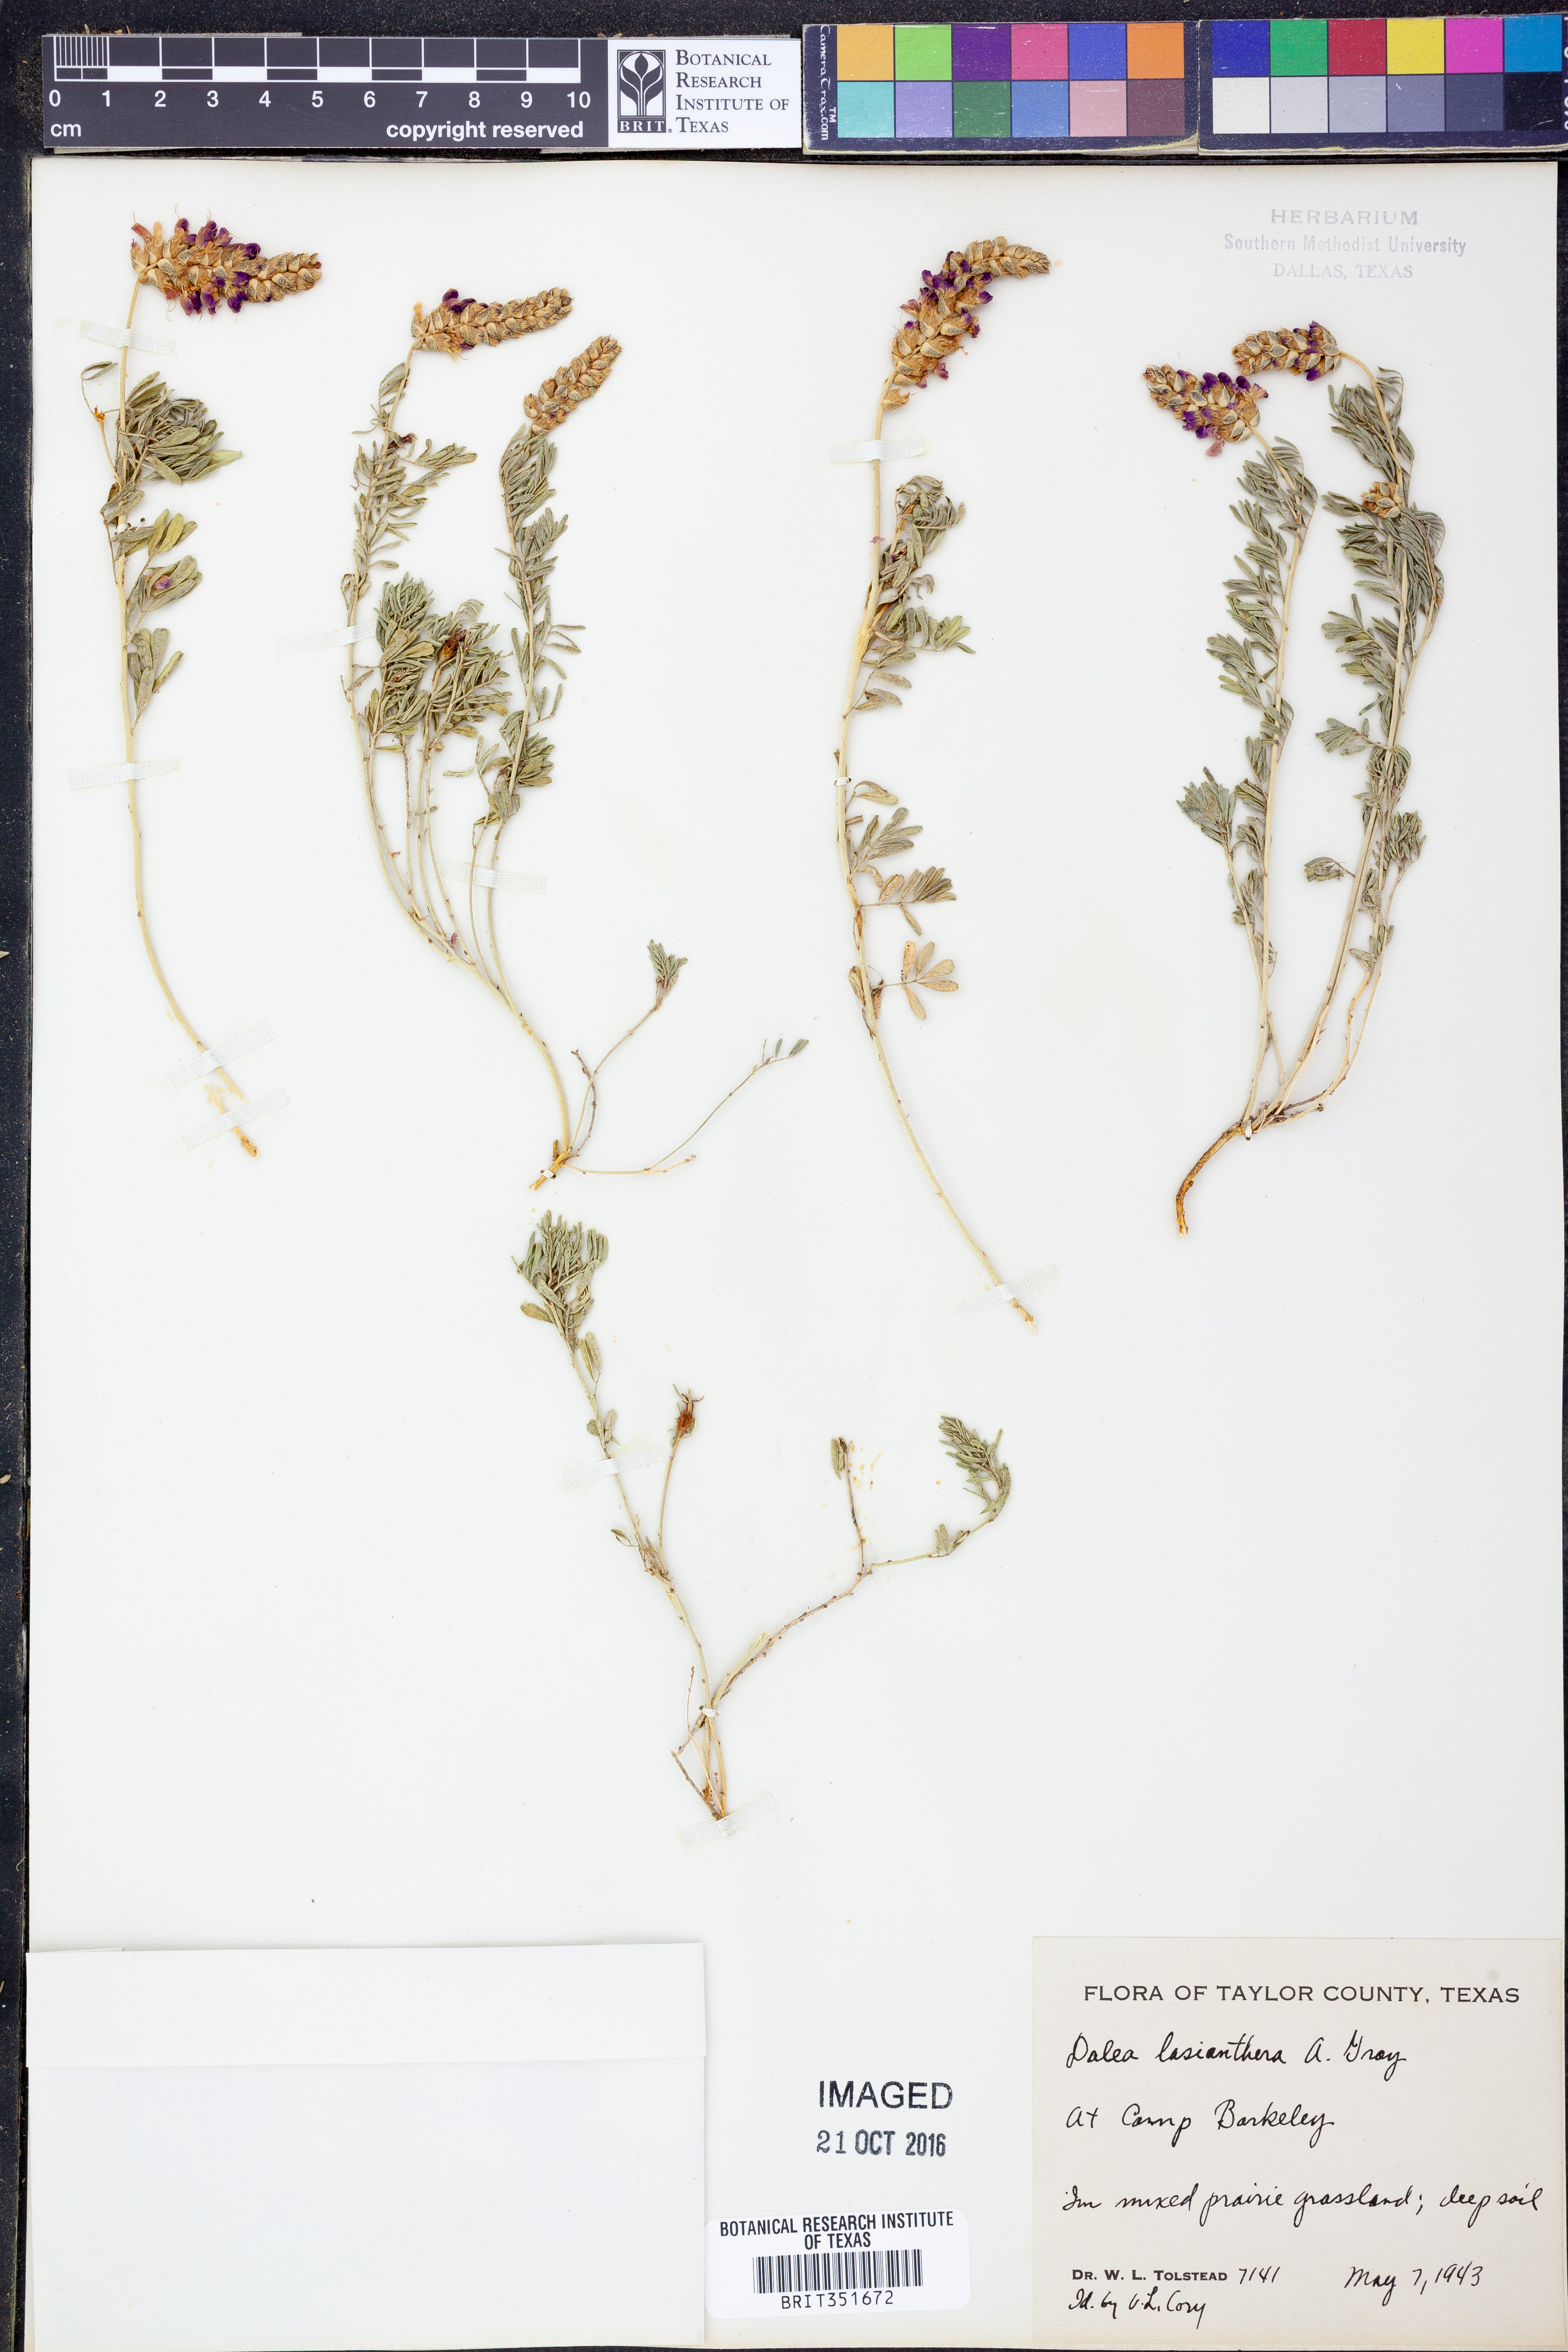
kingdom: Plantae
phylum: Tracheophyta
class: Magnoliopsida
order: Fabales
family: Fabaceae
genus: Dalea
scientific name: Dalea lasiathera
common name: Purple prairie-clover
